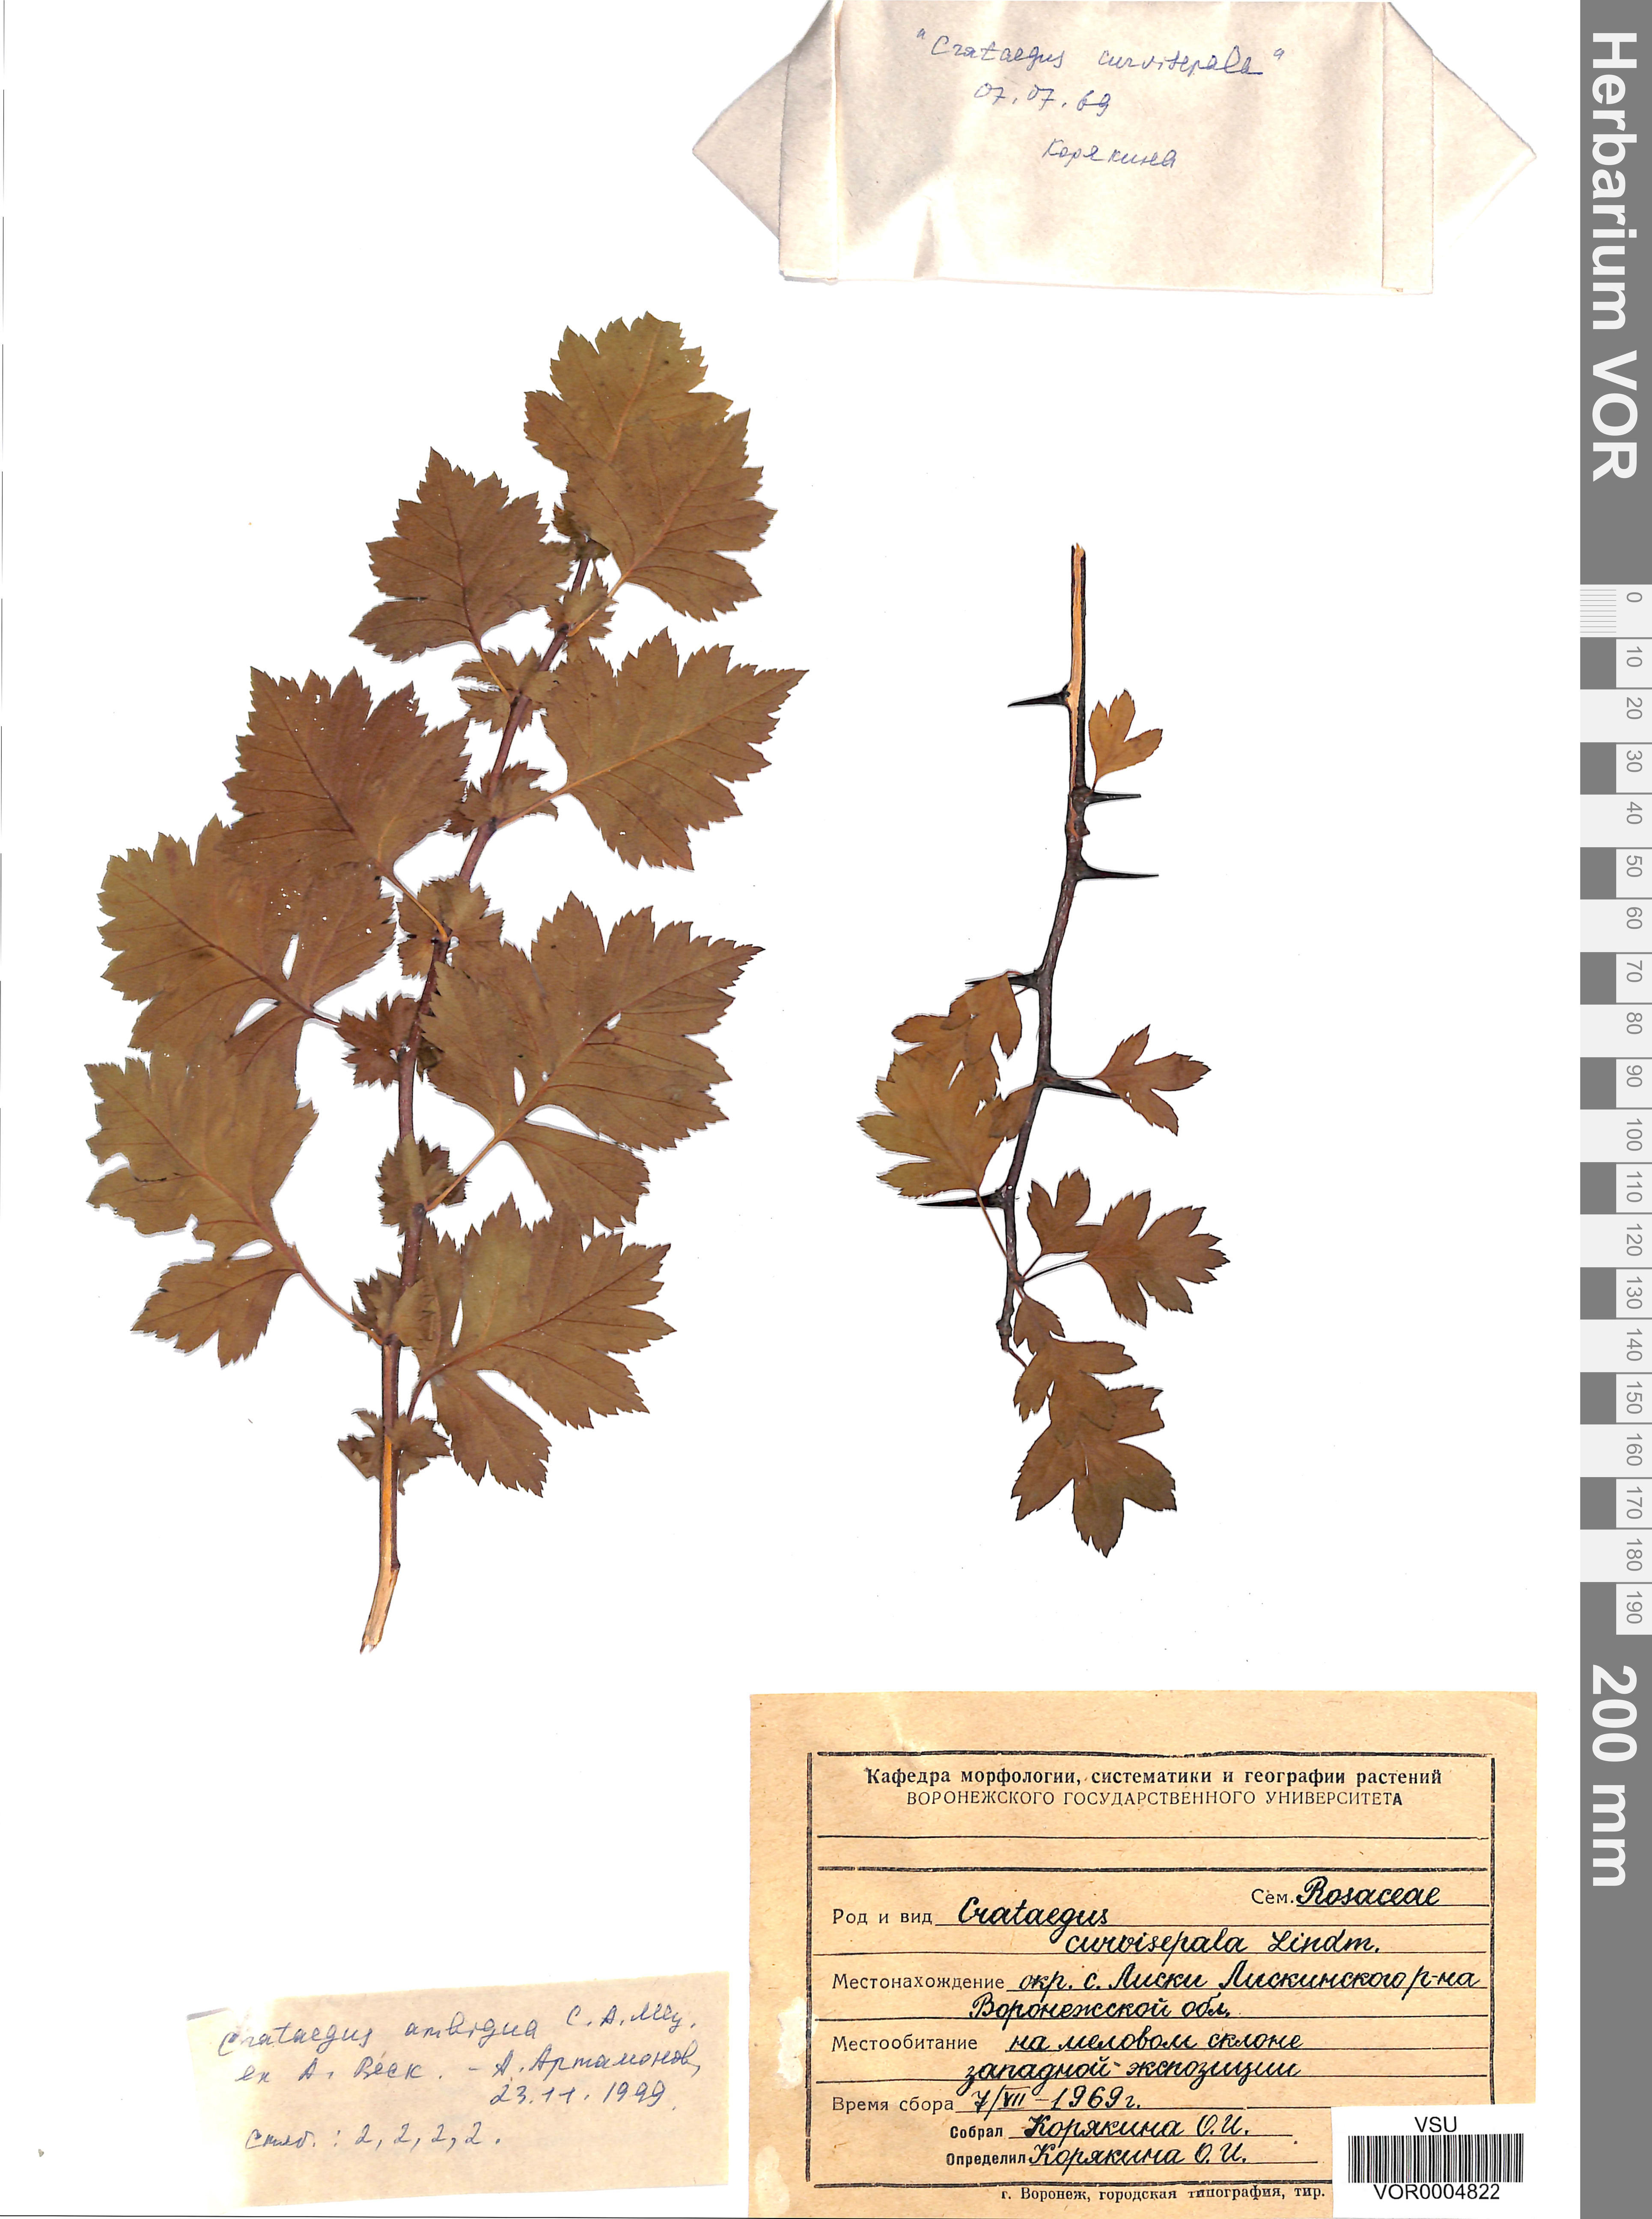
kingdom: Plantae
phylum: Tracheophyta
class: Magnoliopsida
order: Rosales
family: Rosaceae
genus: Crataegus
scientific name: Crataegus ambigua
